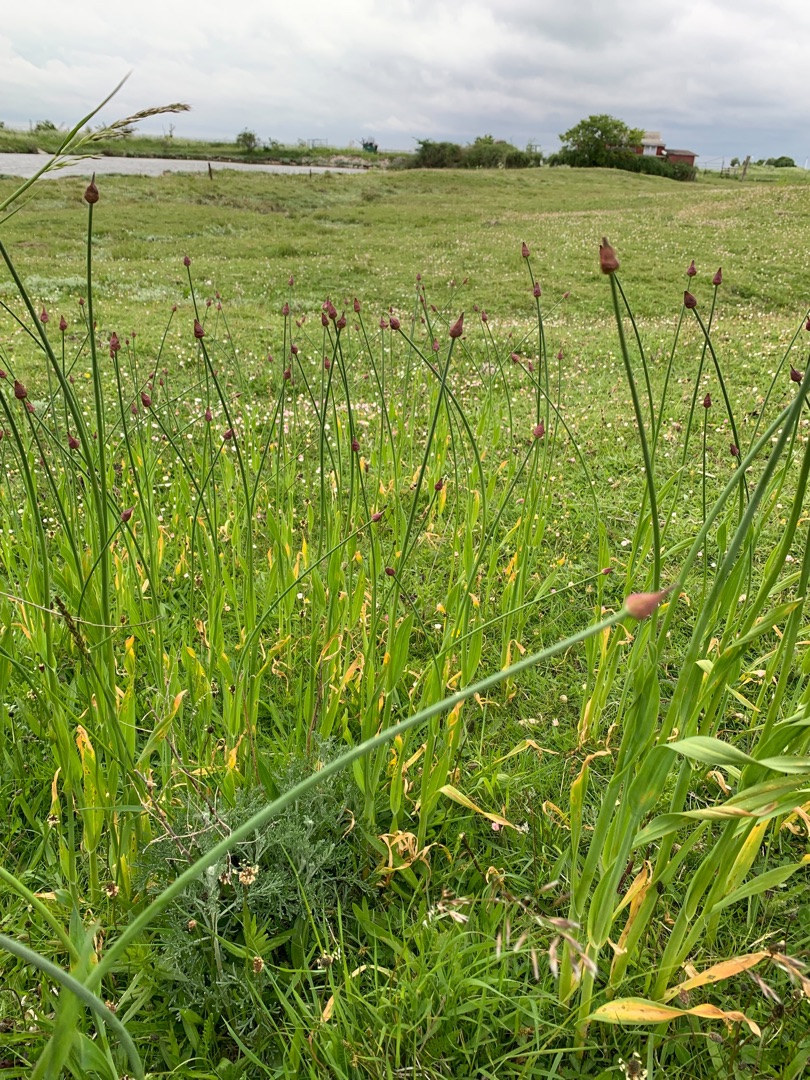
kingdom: Plantae
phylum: Tracheophyta
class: Liliopsida
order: Asparagales
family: Amaryllidaceae
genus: Allium
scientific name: Allium scorodoprasum
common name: Skov-løg
